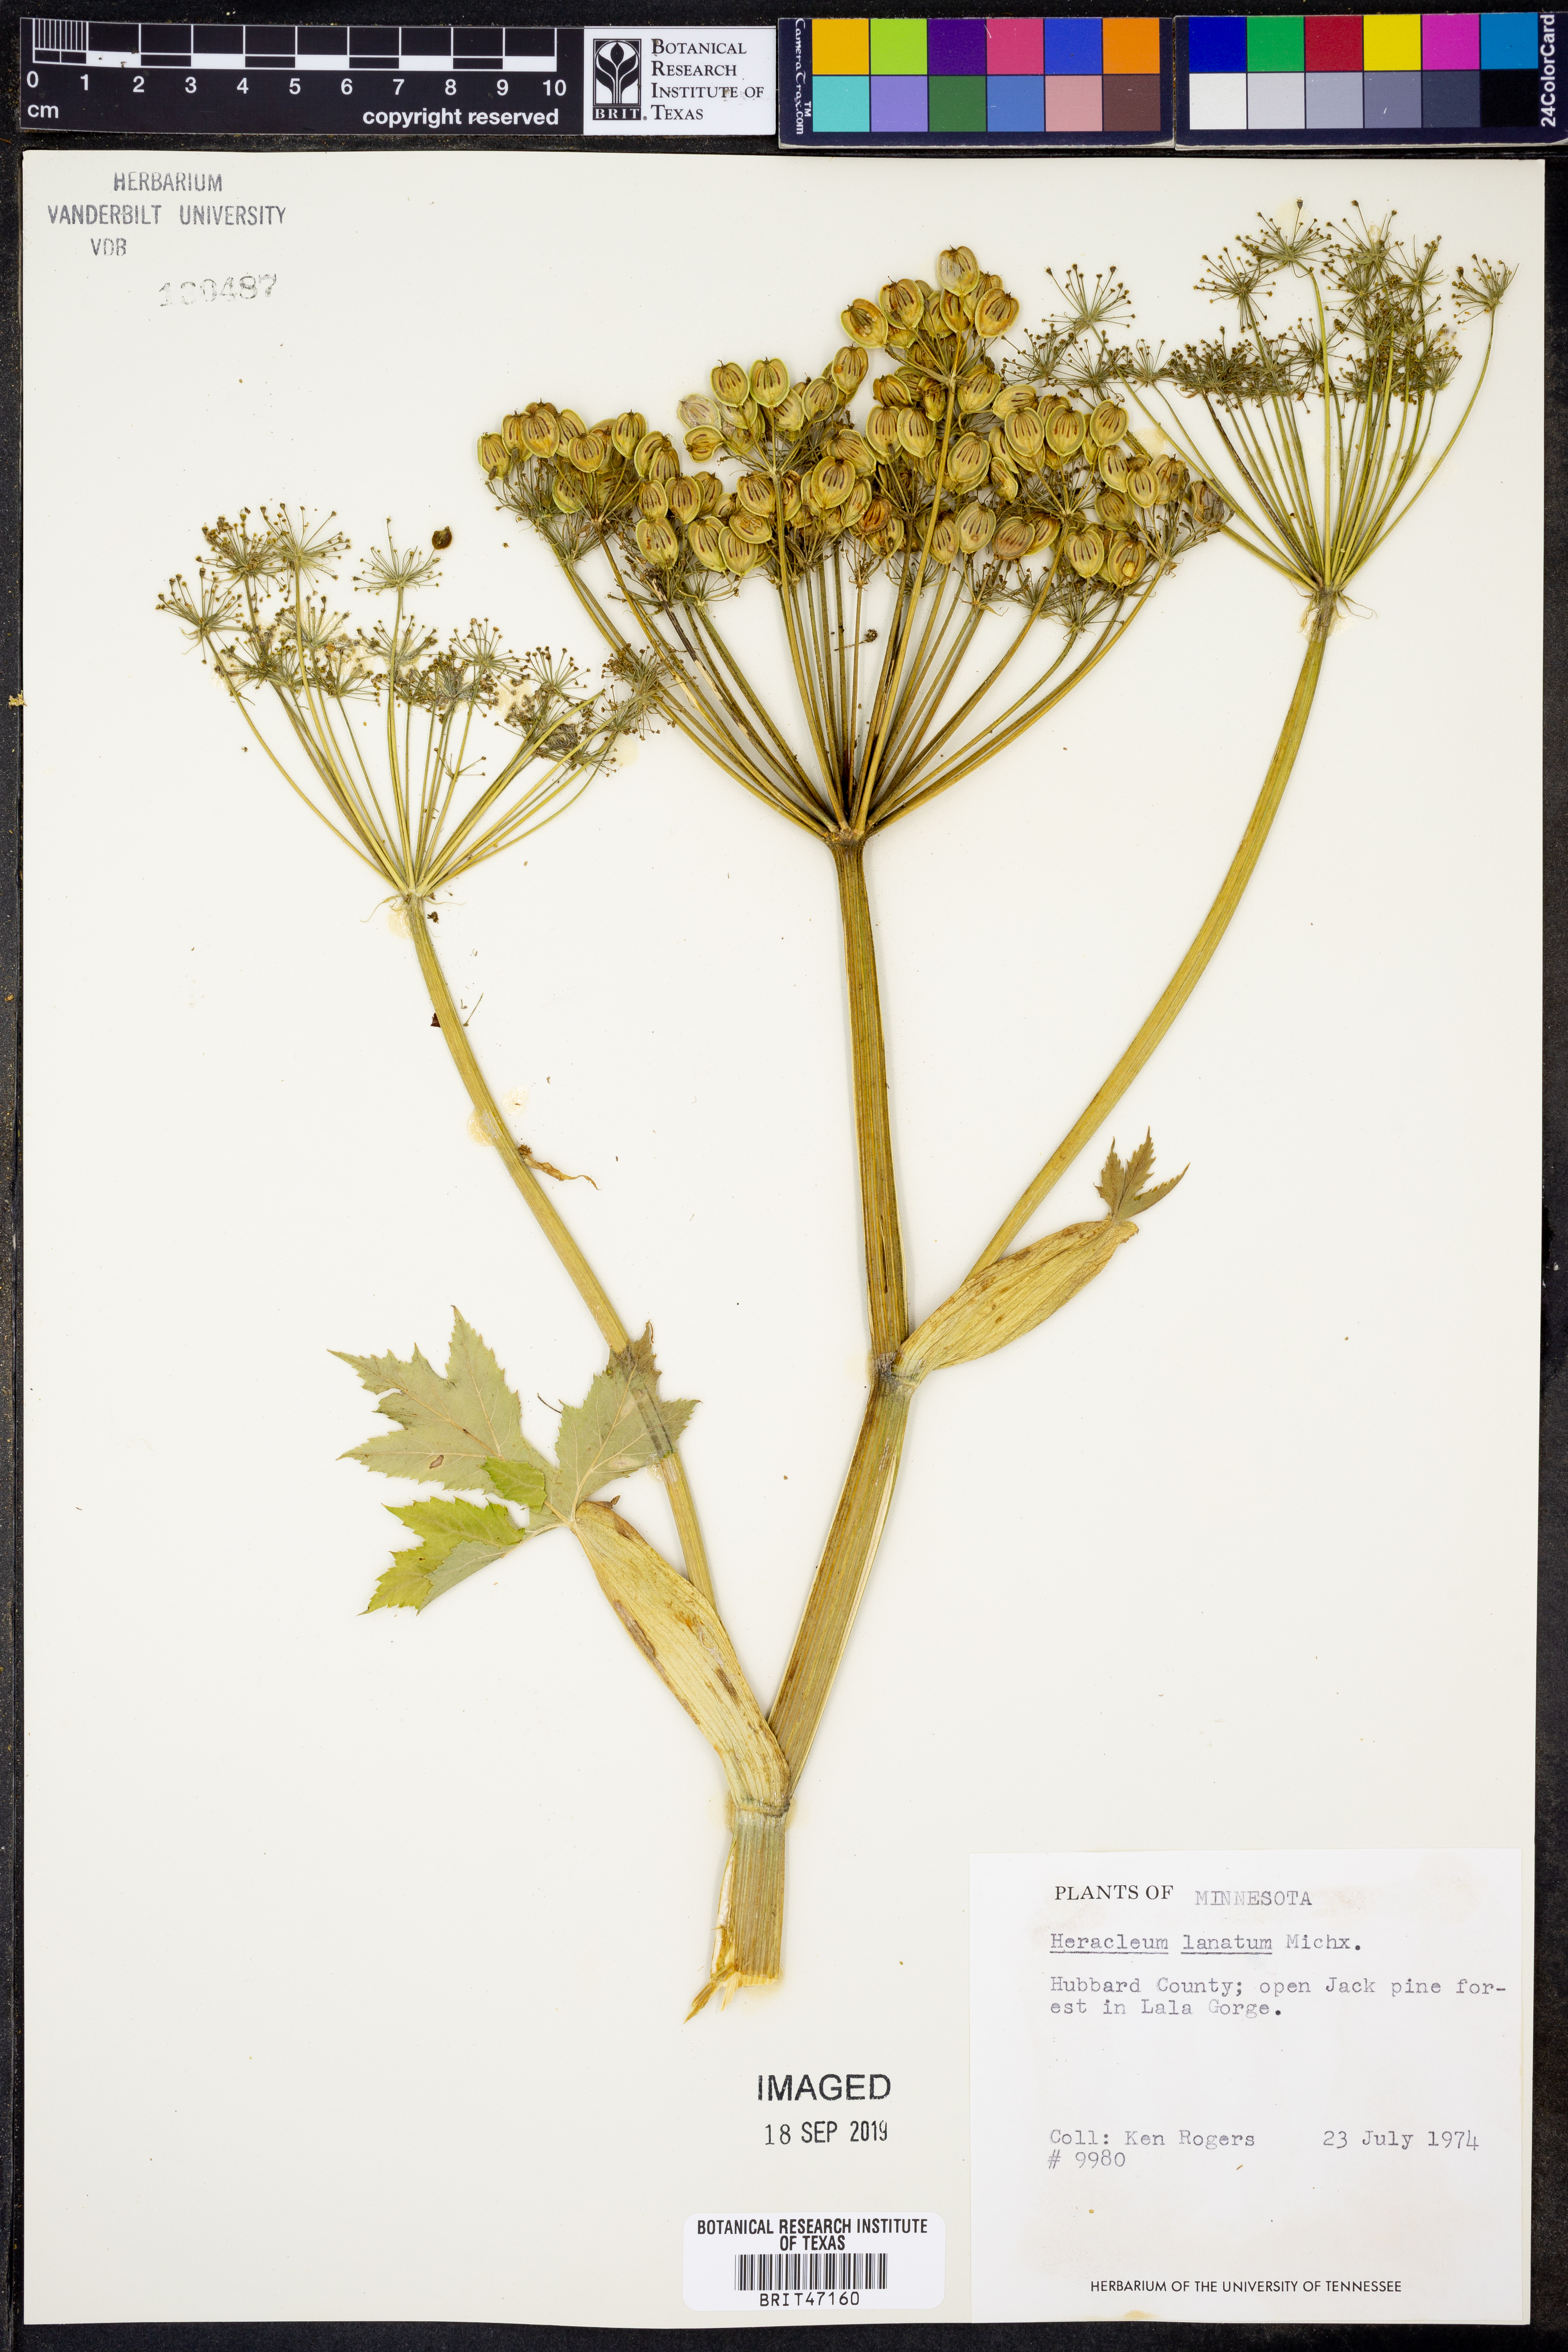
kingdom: Plantae
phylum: Tracheophyta
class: Magnoliopsida
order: Apiales
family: Apiaceae
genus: Heracleum
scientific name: Heracleum maximum
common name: American cow parsnip
